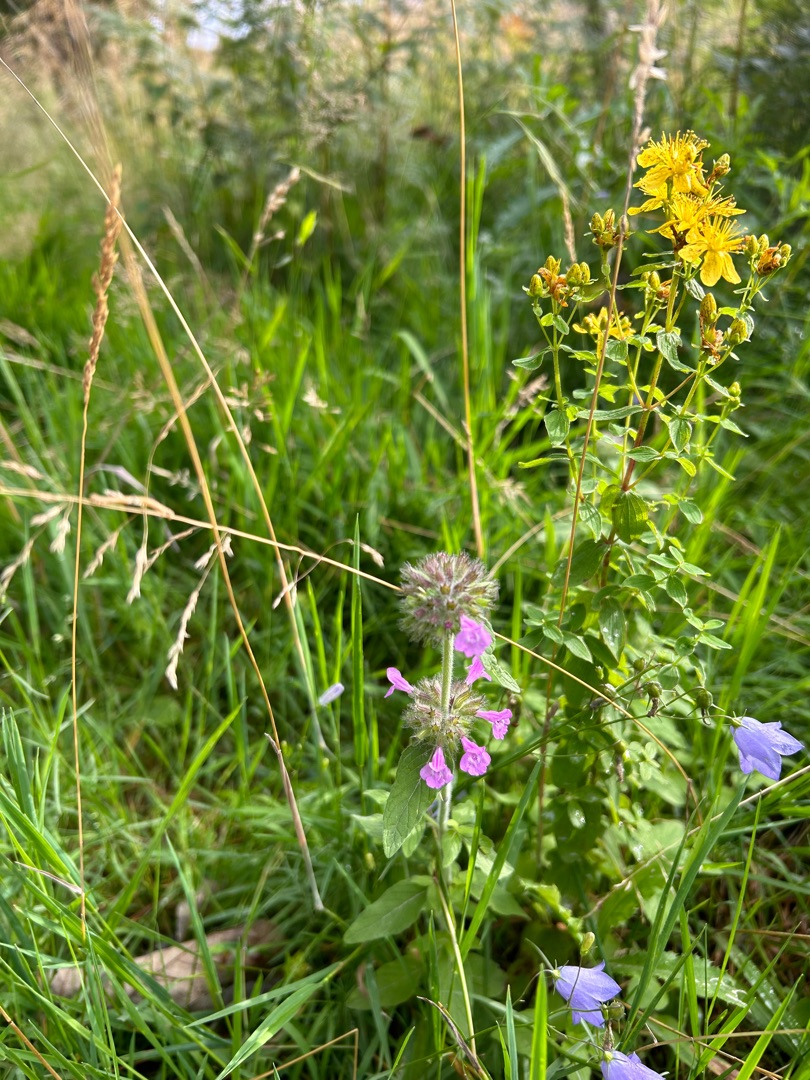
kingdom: Plantae
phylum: Tracheophyta
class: Magnoliopsida
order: Lamiales
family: Lamiaceae
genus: Clinopodium
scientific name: Clinopodium vulgare
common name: Kransbørste
